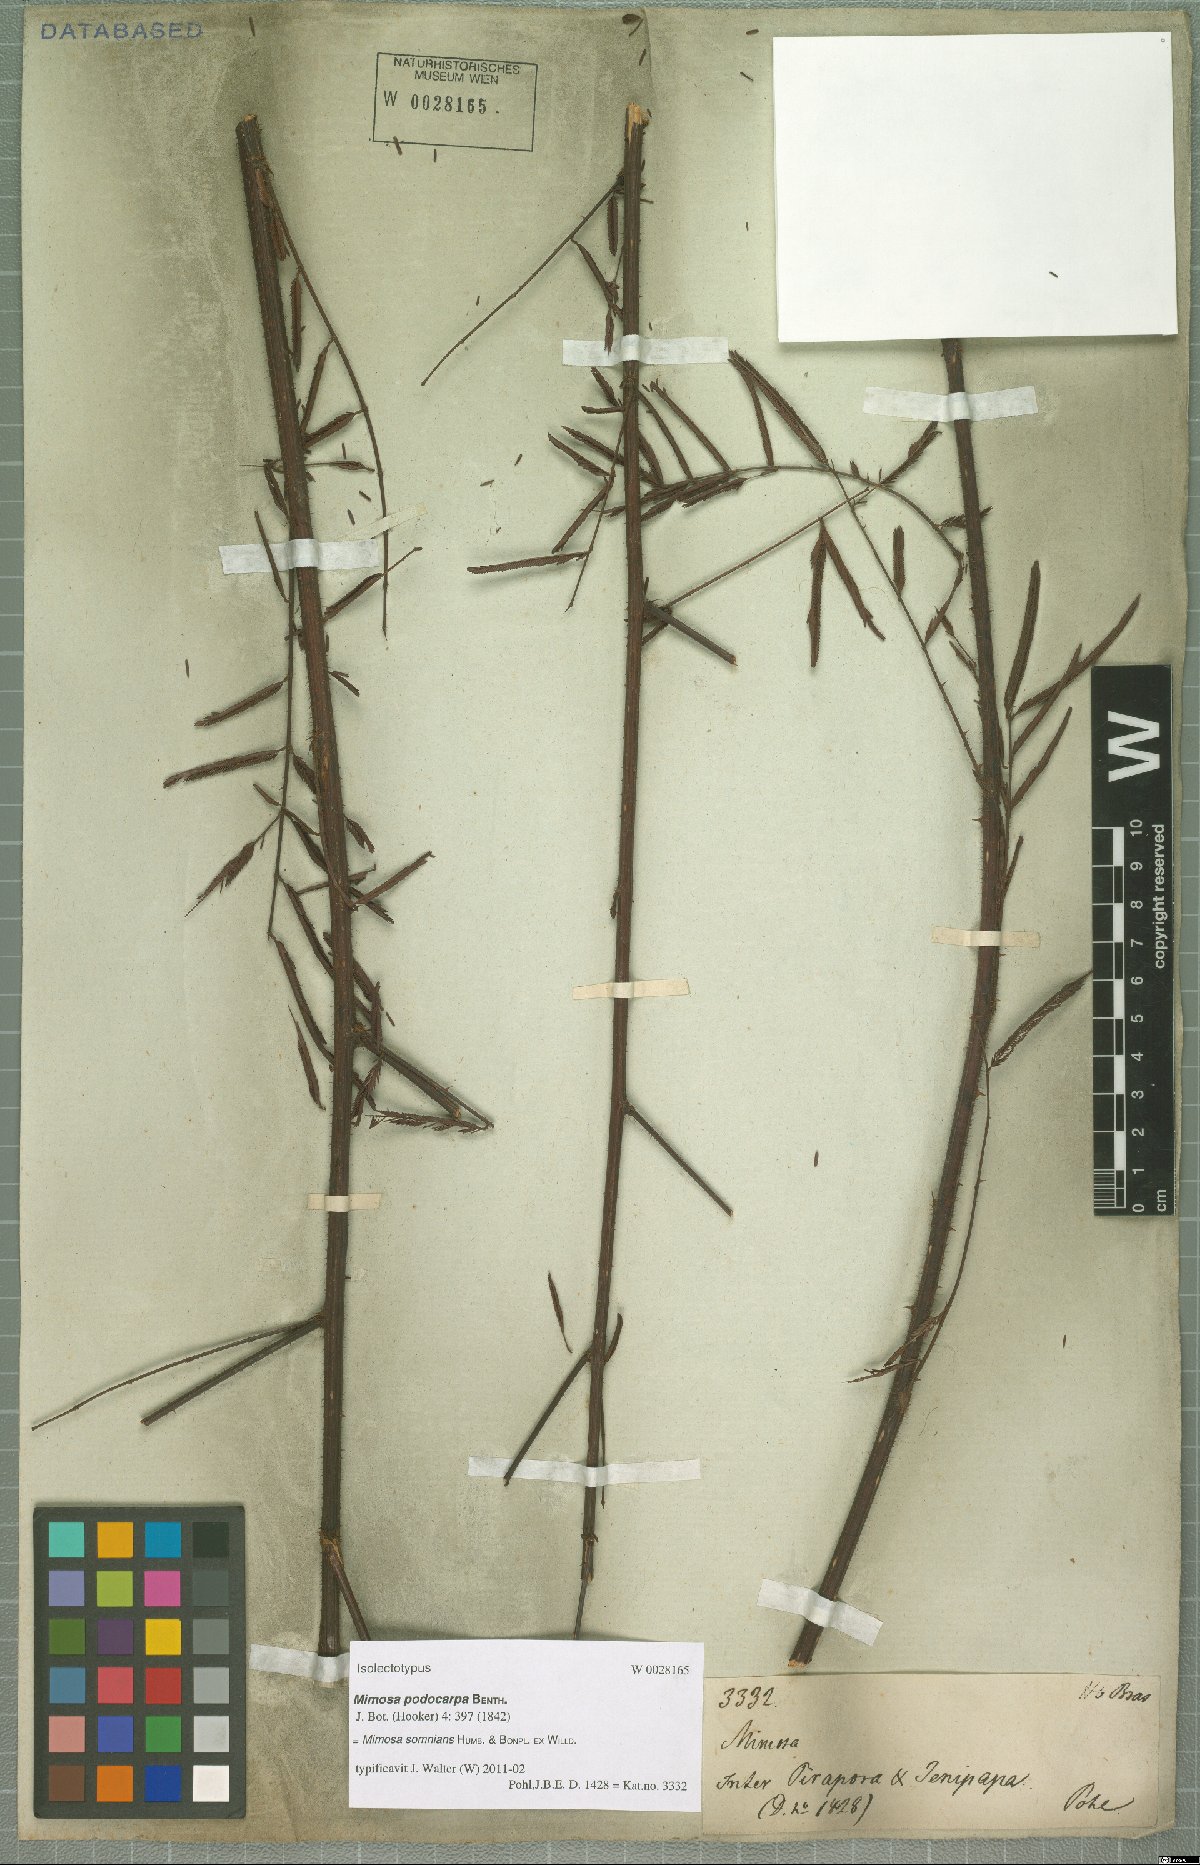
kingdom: Plantae
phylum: Tracheophyta
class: Magnoliopsida
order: Fabales
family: Fabaceae
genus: Mimosa
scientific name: Mimosa somnians
